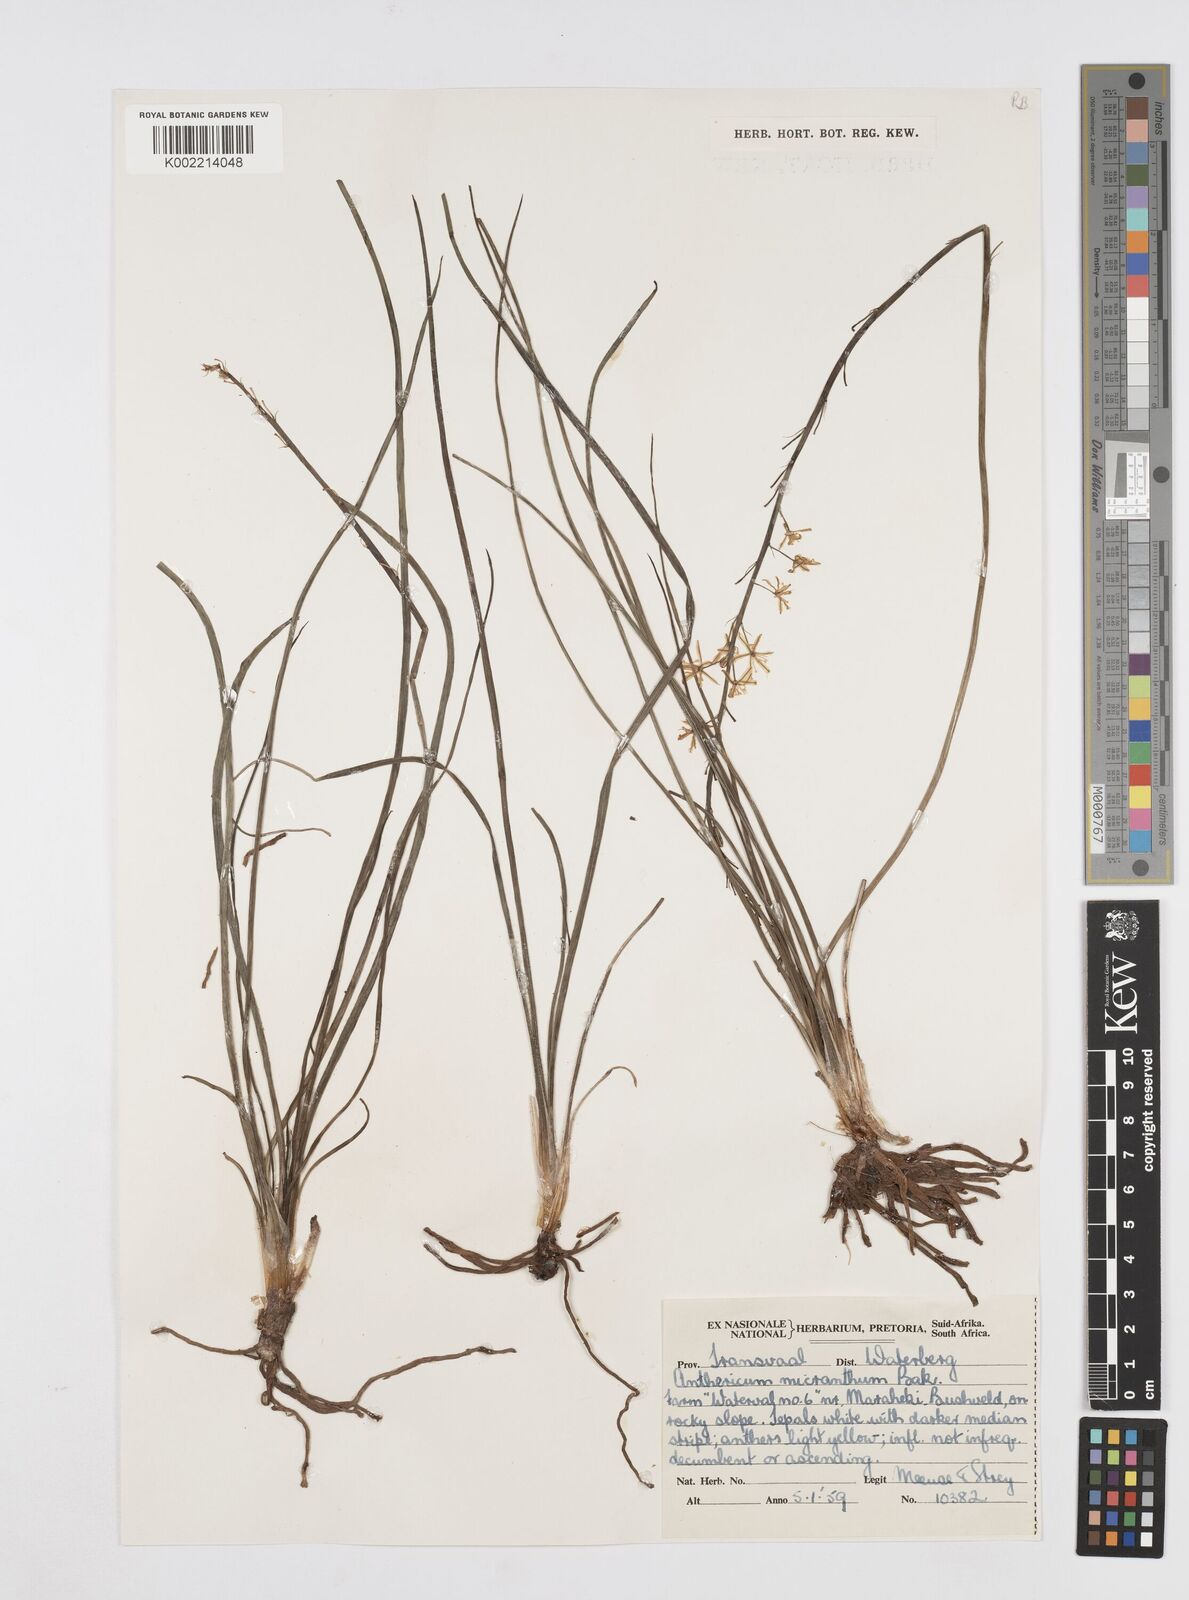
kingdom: Plantae
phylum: Tracheophyta
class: Liliopsida
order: Asparagales
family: Asphodelaceae
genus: Trachyandra
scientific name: Trachyandra
